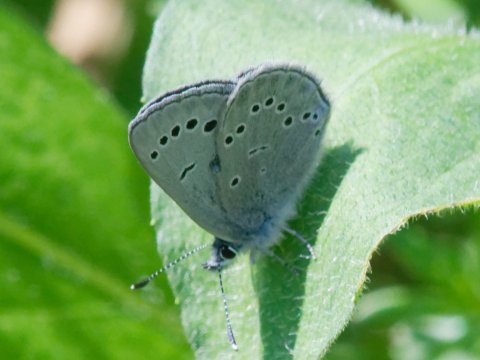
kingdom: Animalia
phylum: Arthropoda
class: Insecta
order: Lepidoptera
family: Lycaenidae
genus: Glaucopsyche
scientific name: Glaucopsyche lygdamus
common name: Silvery Blue
